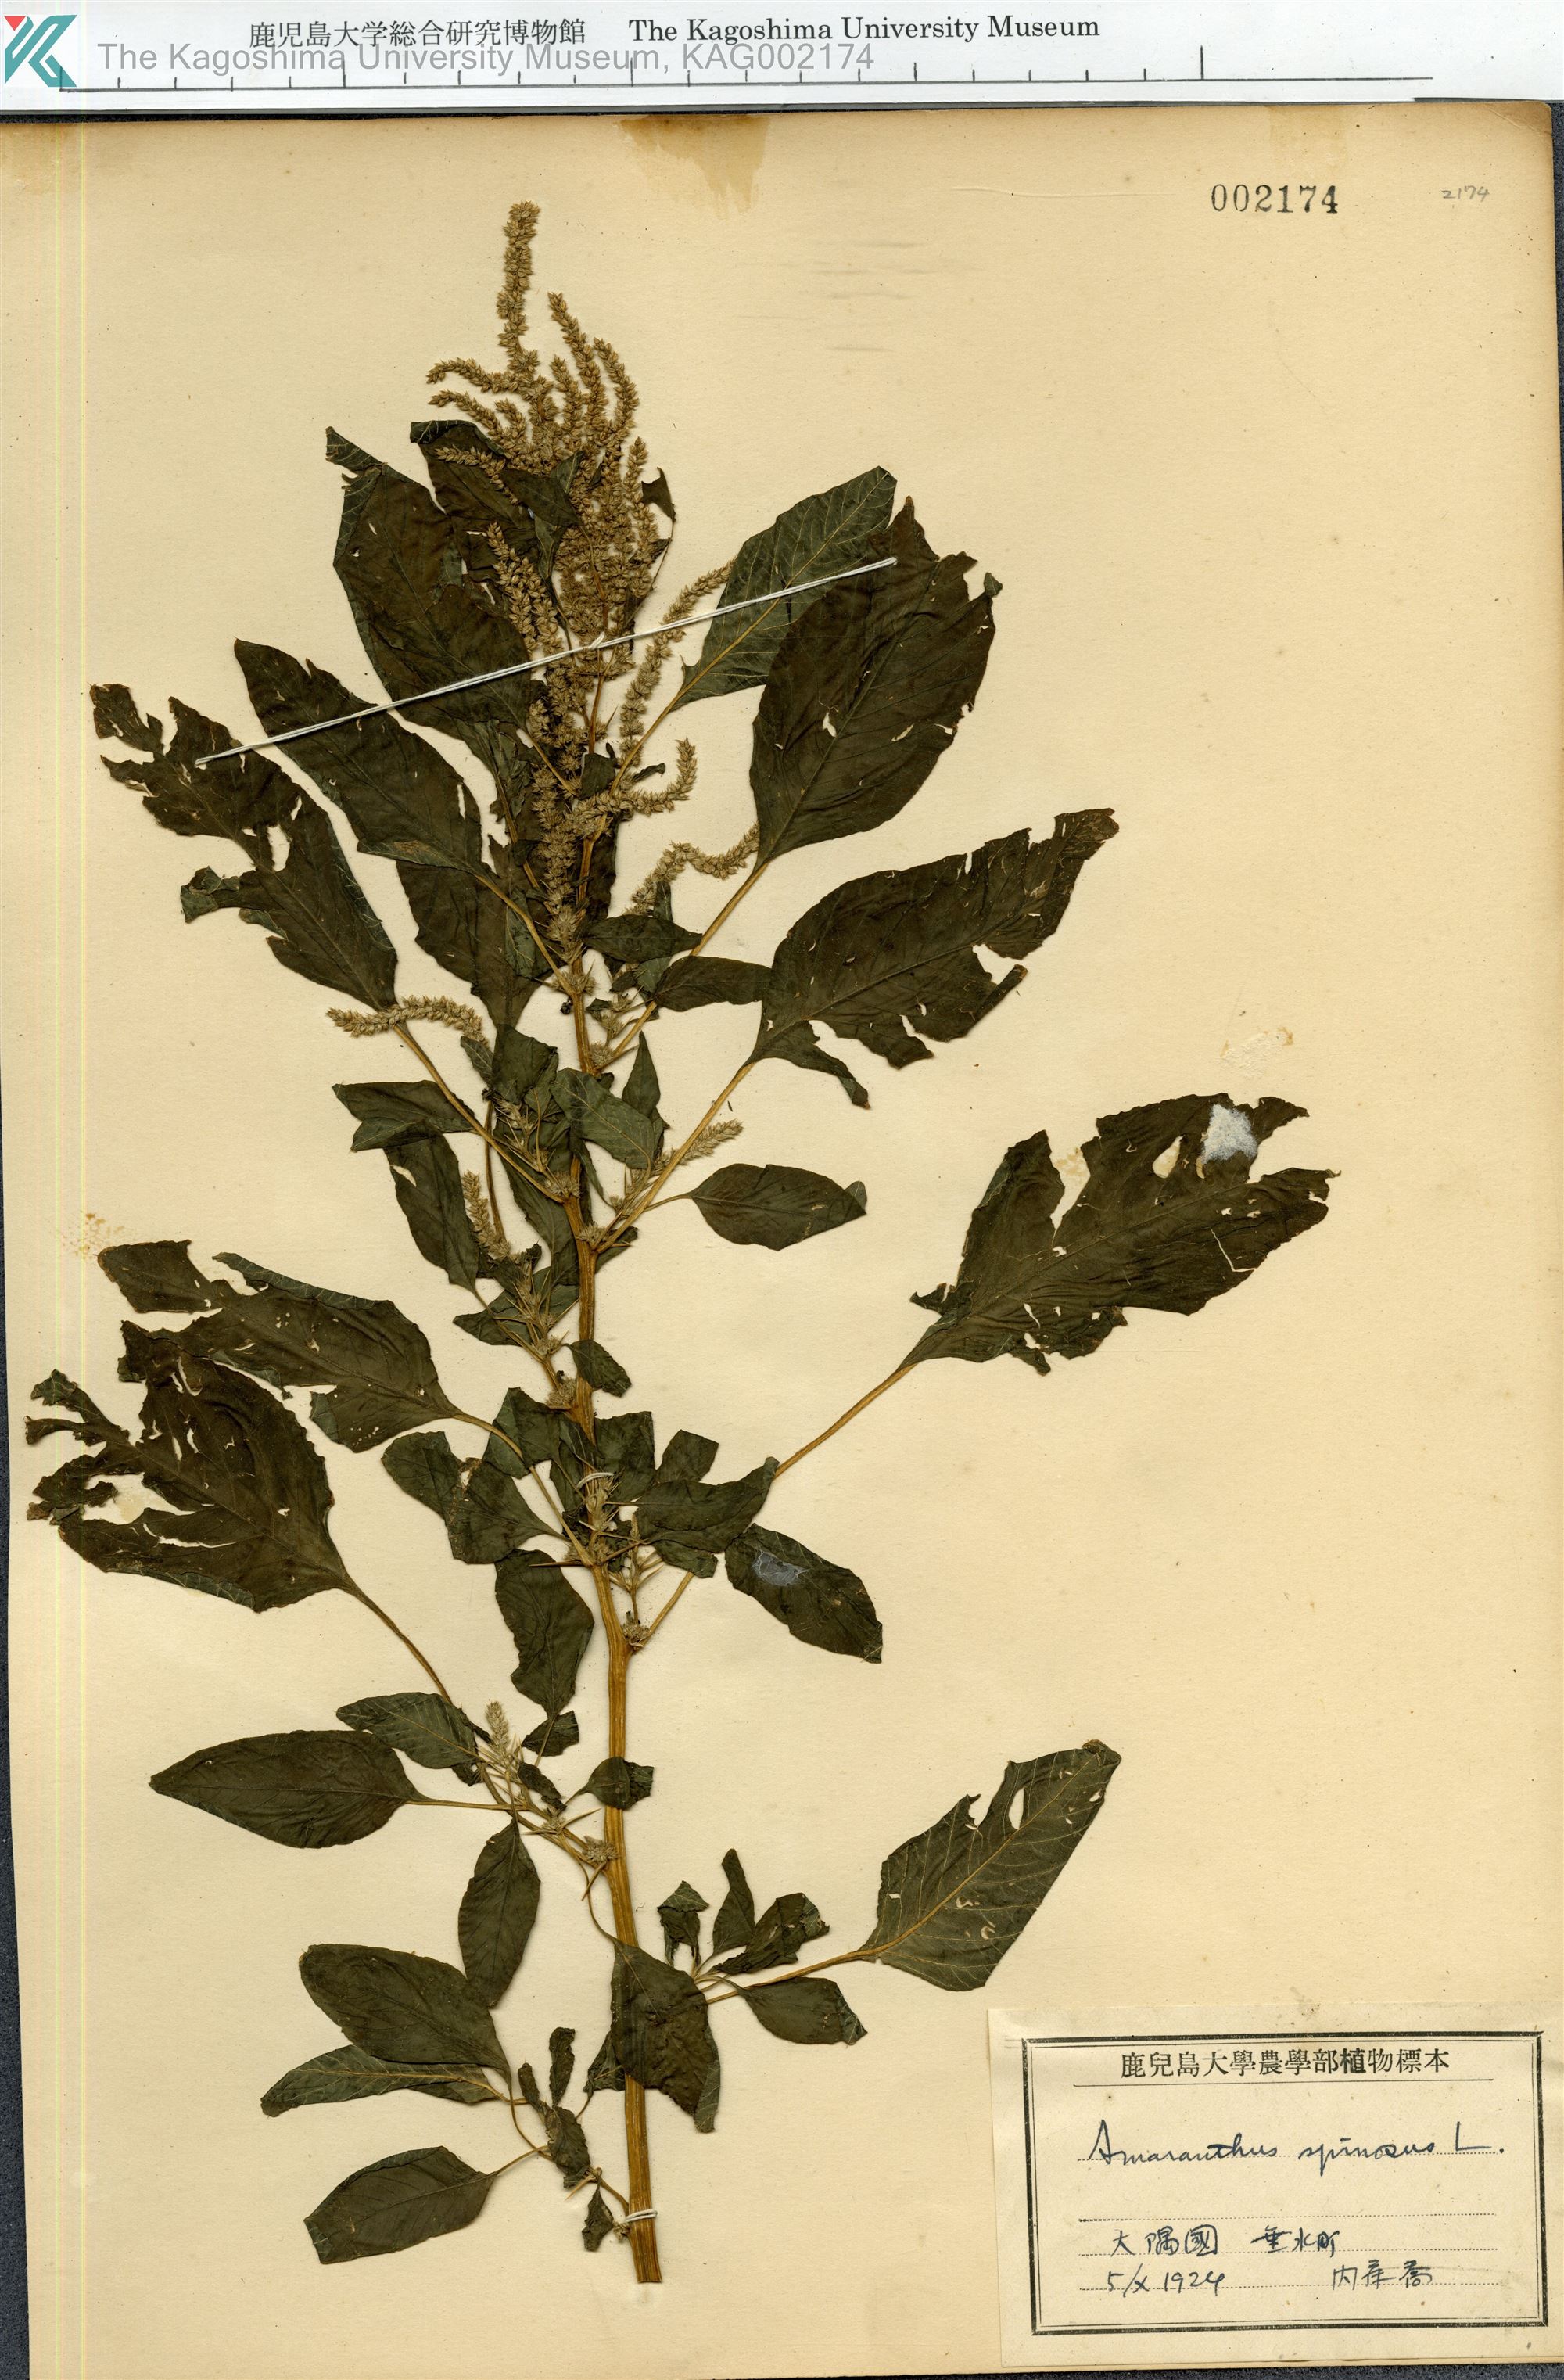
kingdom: Plantae
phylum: Tracheophyta
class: Magnoliopsida
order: Caryophyllales
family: Amaranthaceae
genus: Amaranthus
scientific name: Amaranthus spinosus
